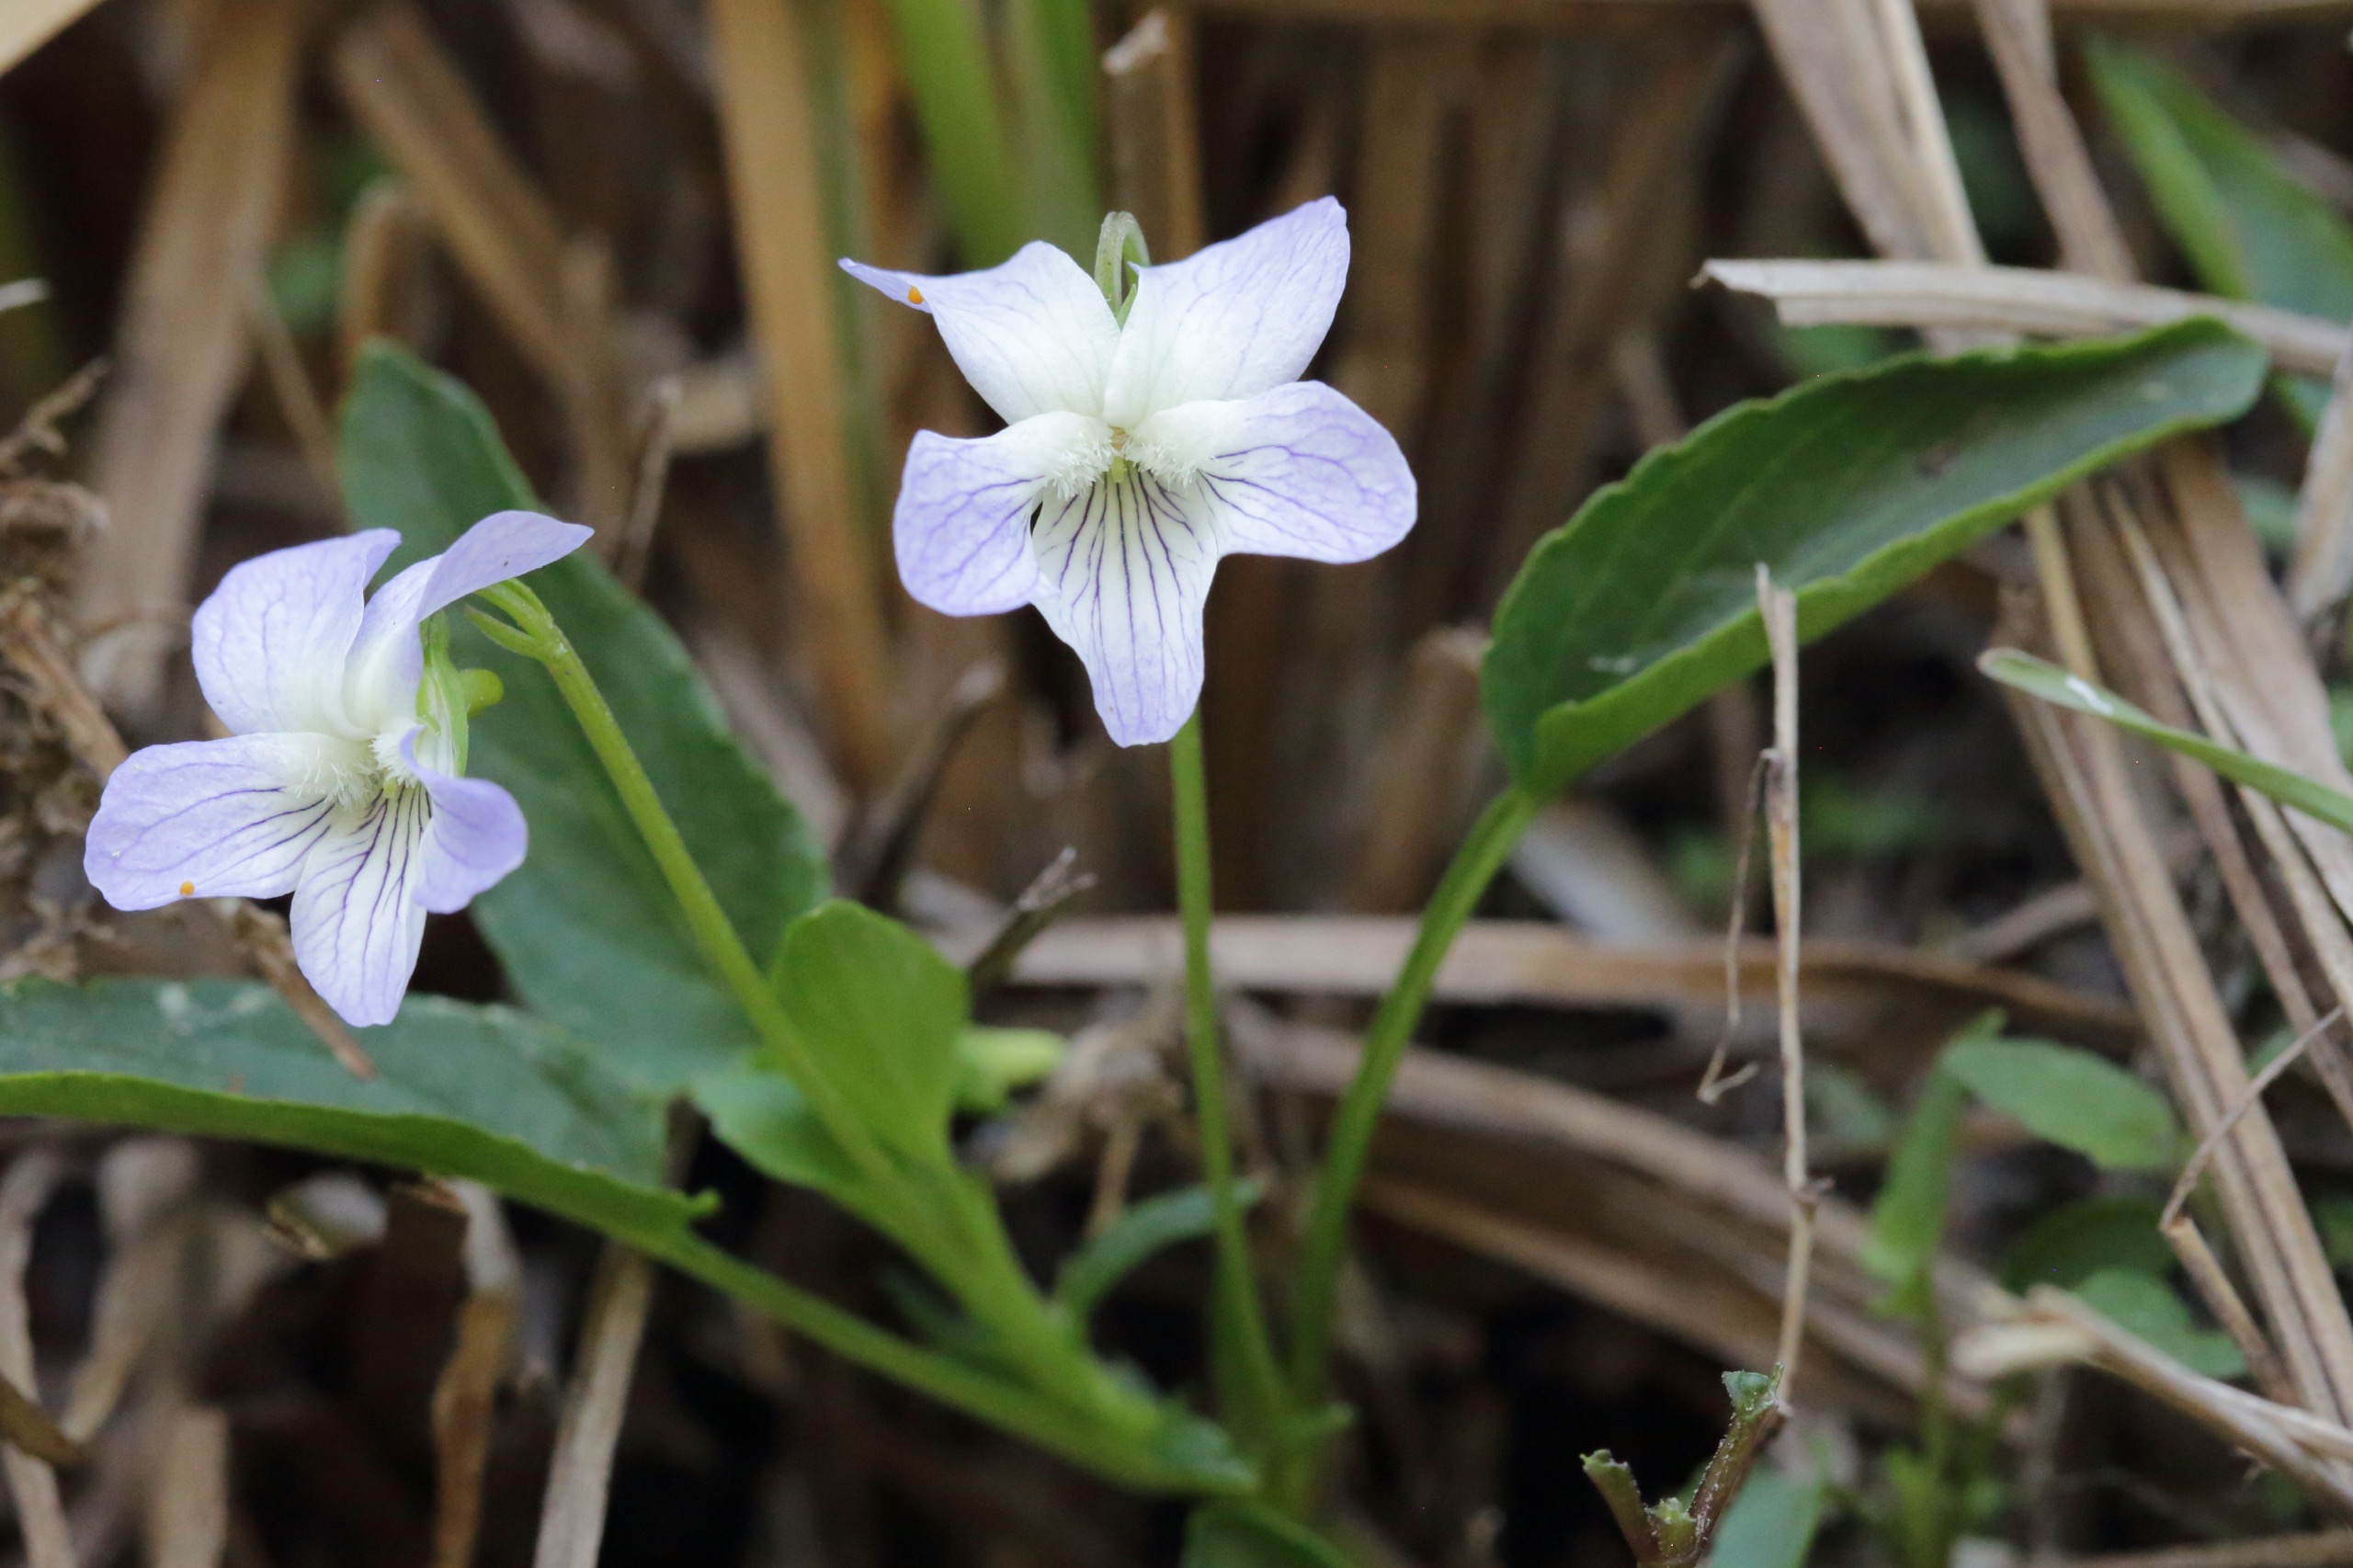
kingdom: Plantae
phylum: Tracheophyta
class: Magnoliopsida
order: Malpighiales
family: Violaceae
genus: Viola
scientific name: Viola stagnina
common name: Rank viol
